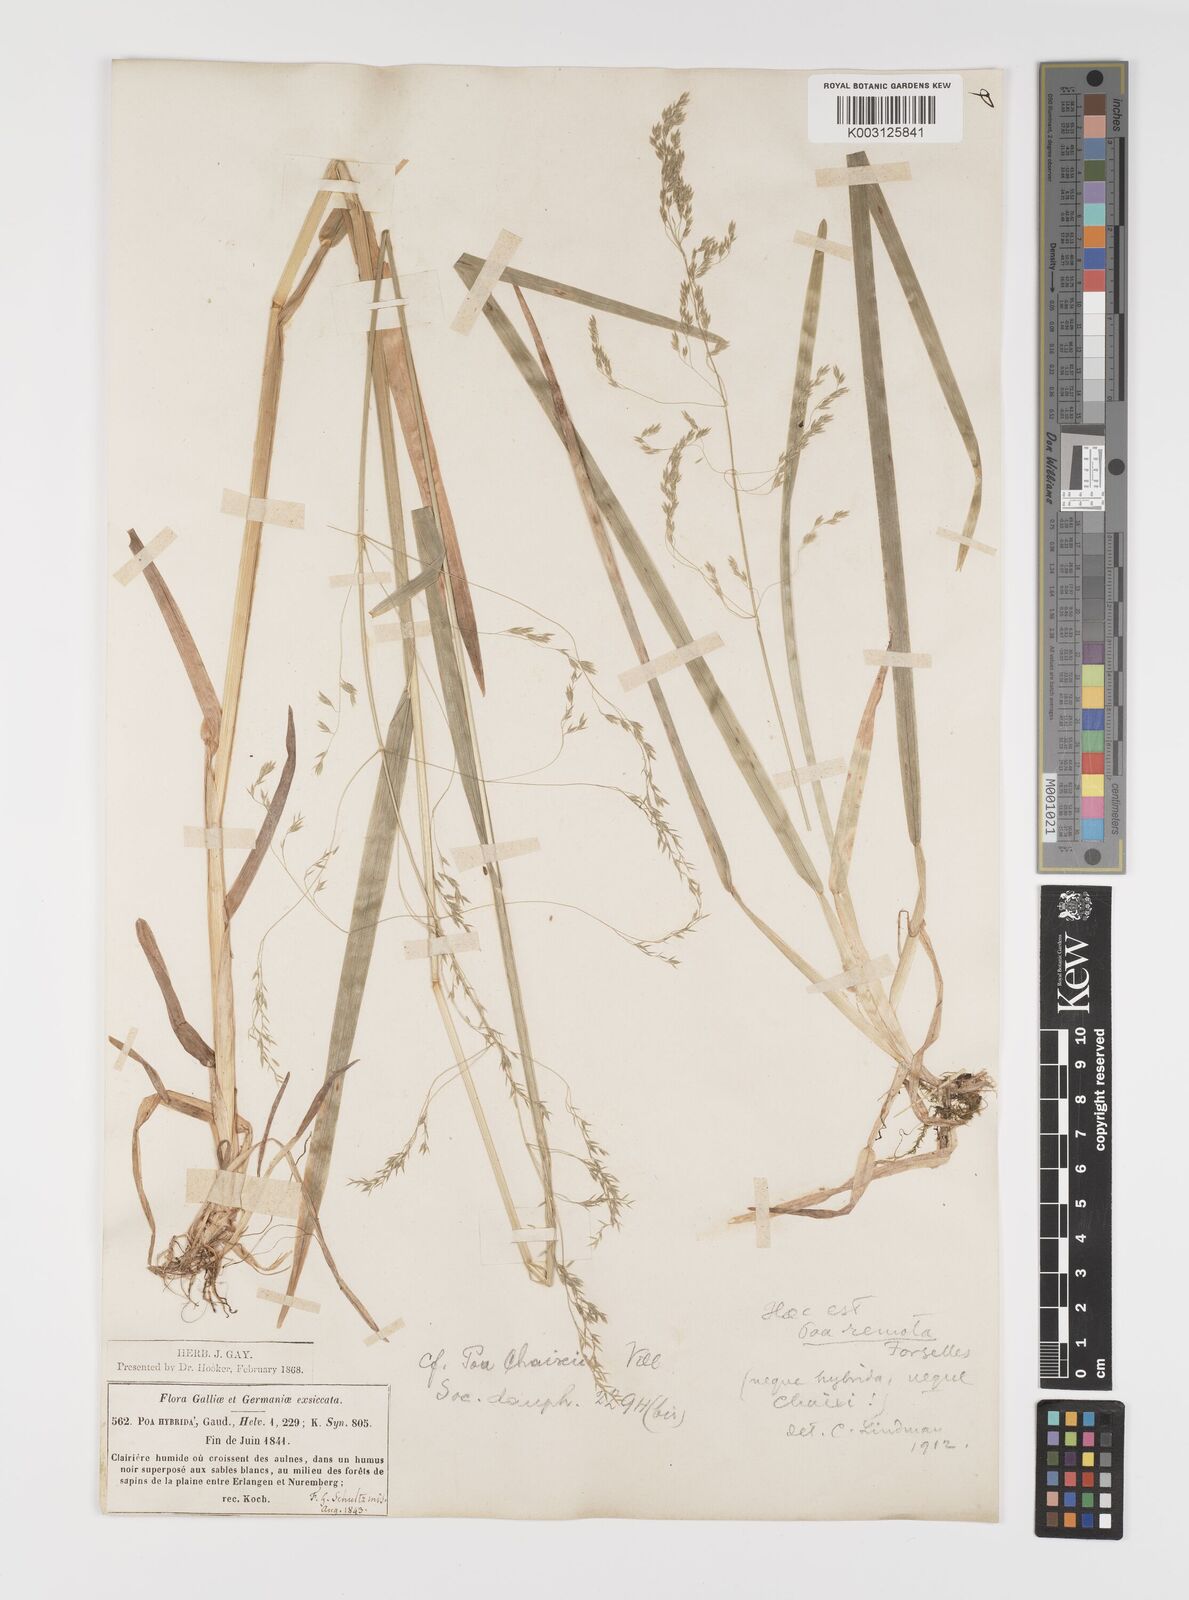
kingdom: Plantae
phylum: Tracheophyta
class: Liliopsida
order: Poales
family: Poaceae
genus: Poa
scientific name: Poa remota
